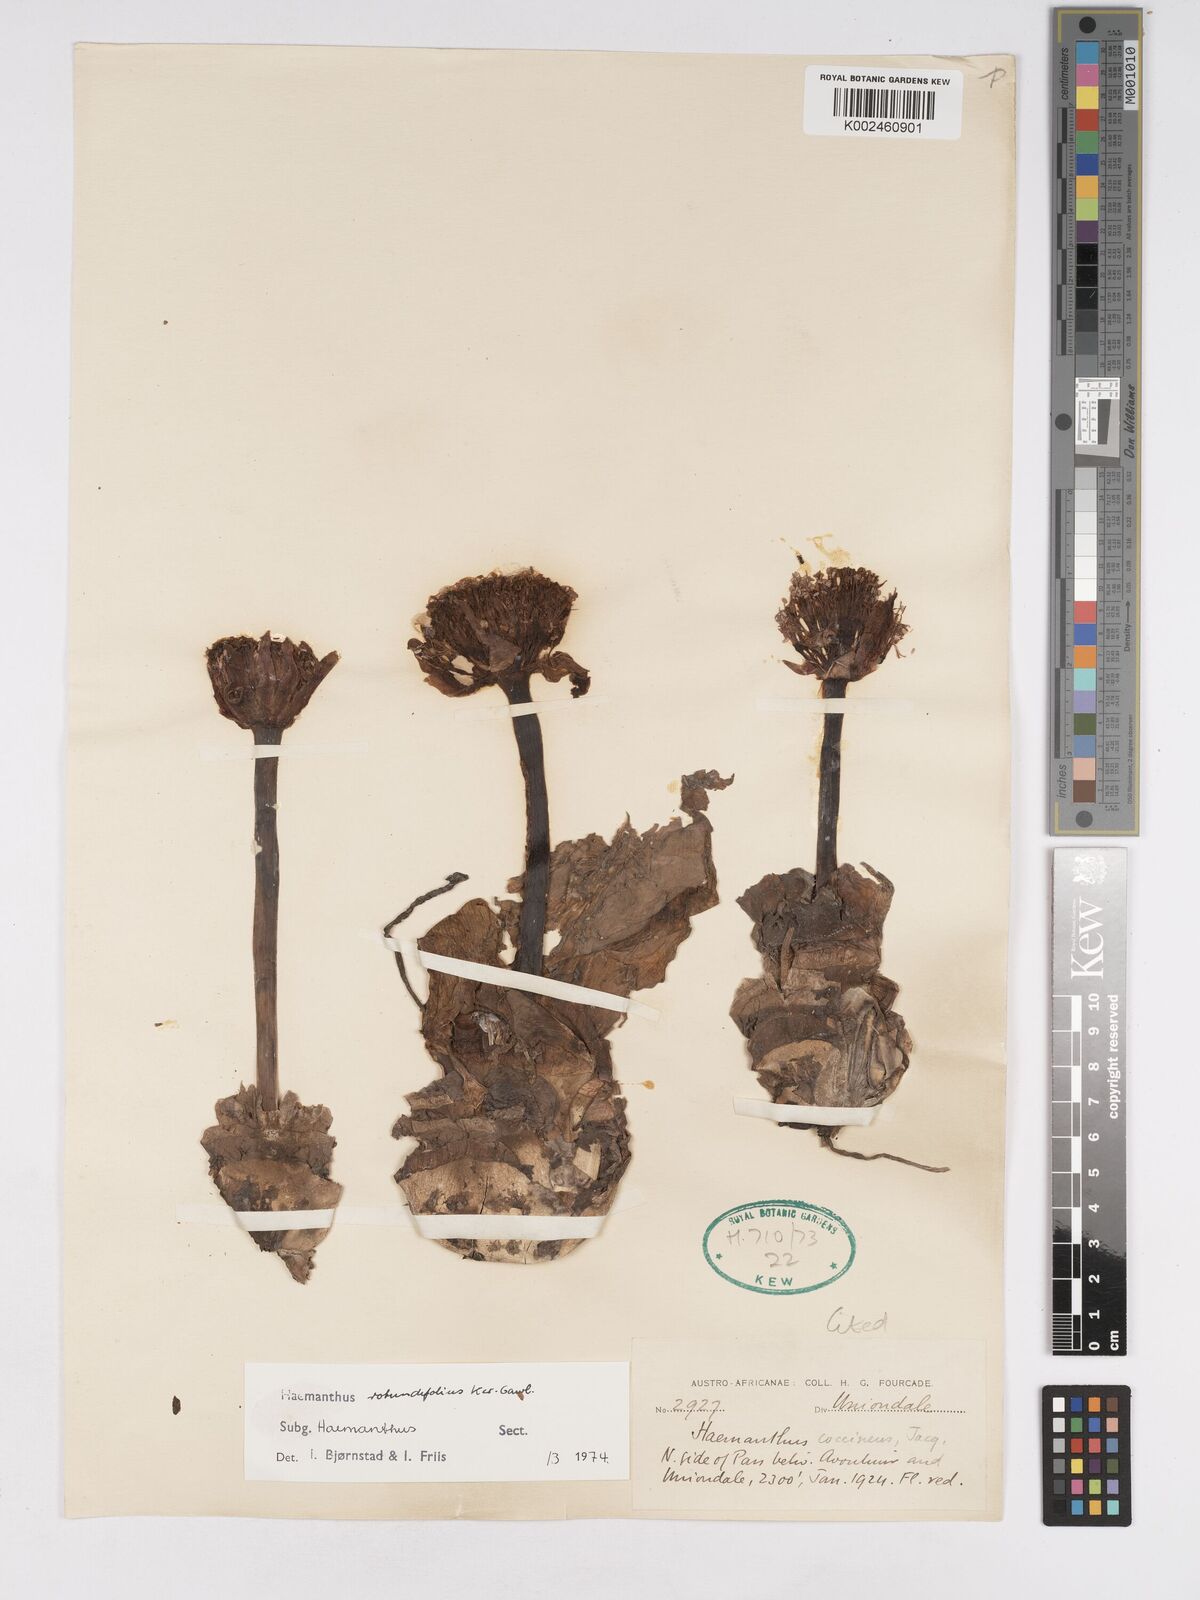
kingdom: Plantae
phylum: Tracheophyta
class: Liliopsida
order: Asparagales
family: Amaryllidaceae
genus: Haemanthus
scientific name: Haemanthus sanguineus
